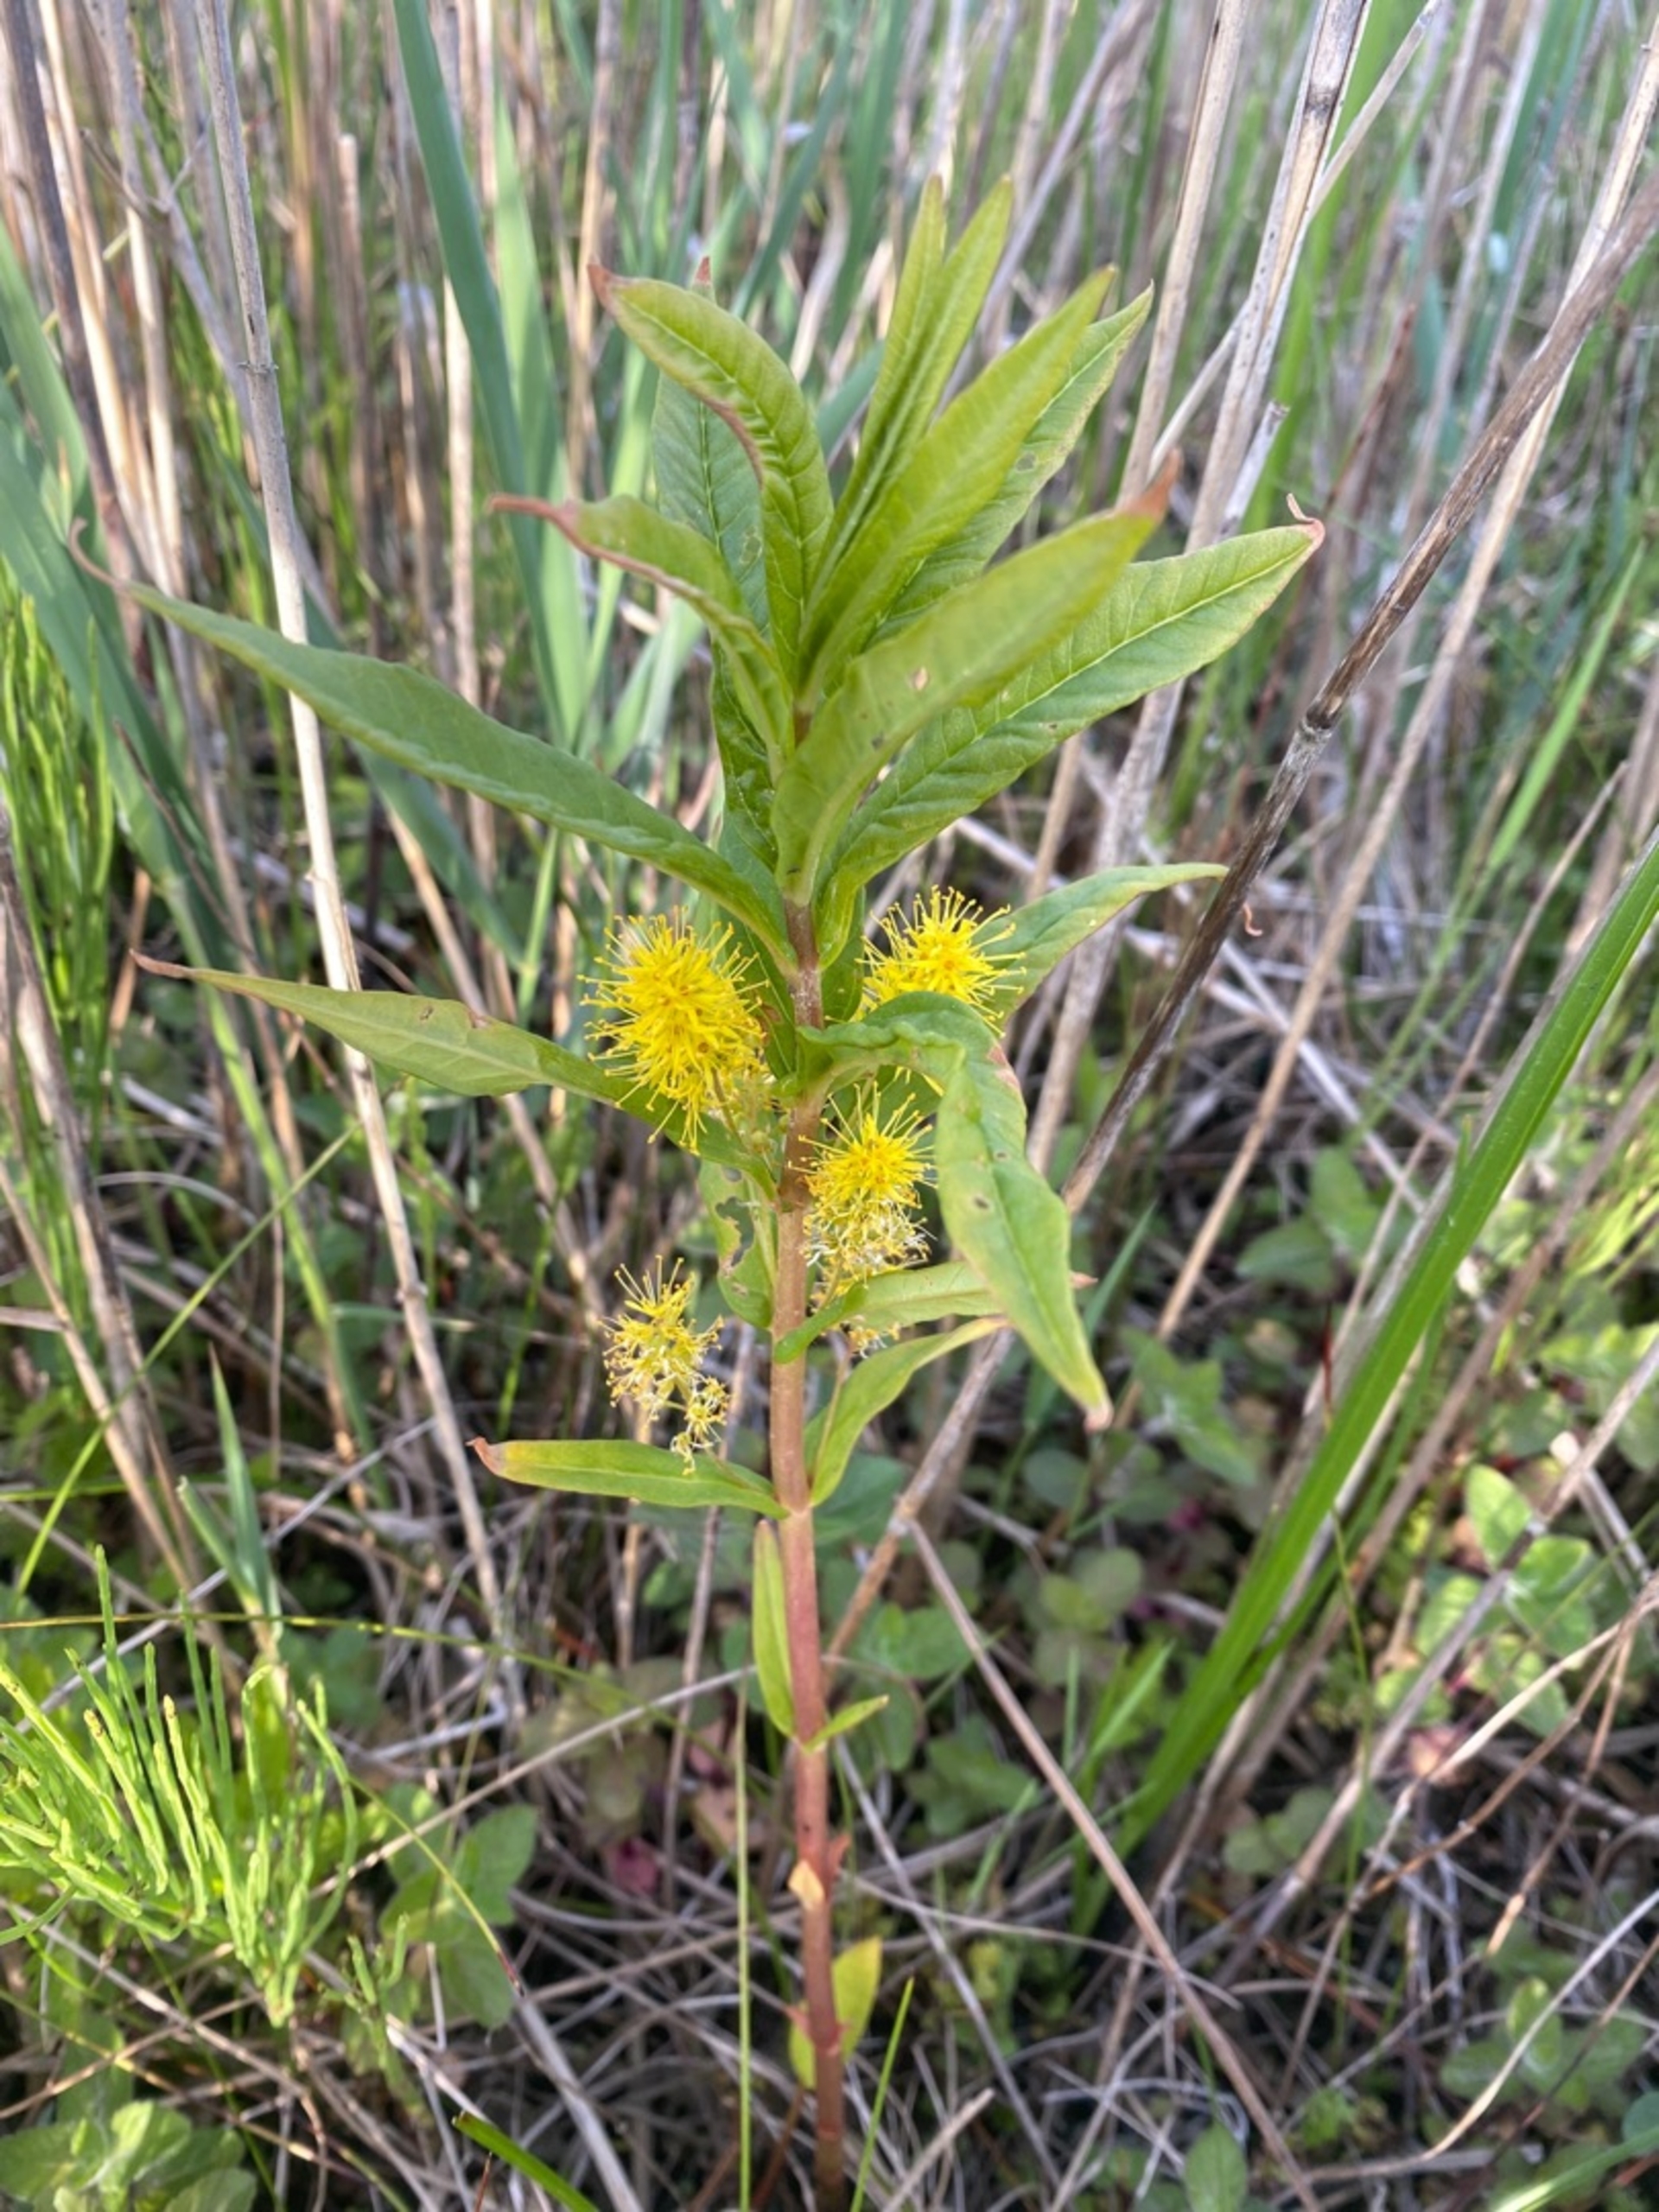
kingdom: Plantae
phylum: Tracheophyta
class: Magnoliopsida
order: Ericales
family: Primulaceae
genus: Lysimachia
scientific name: Lysimachia thyrsiflora
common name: Dusk-fredløs
